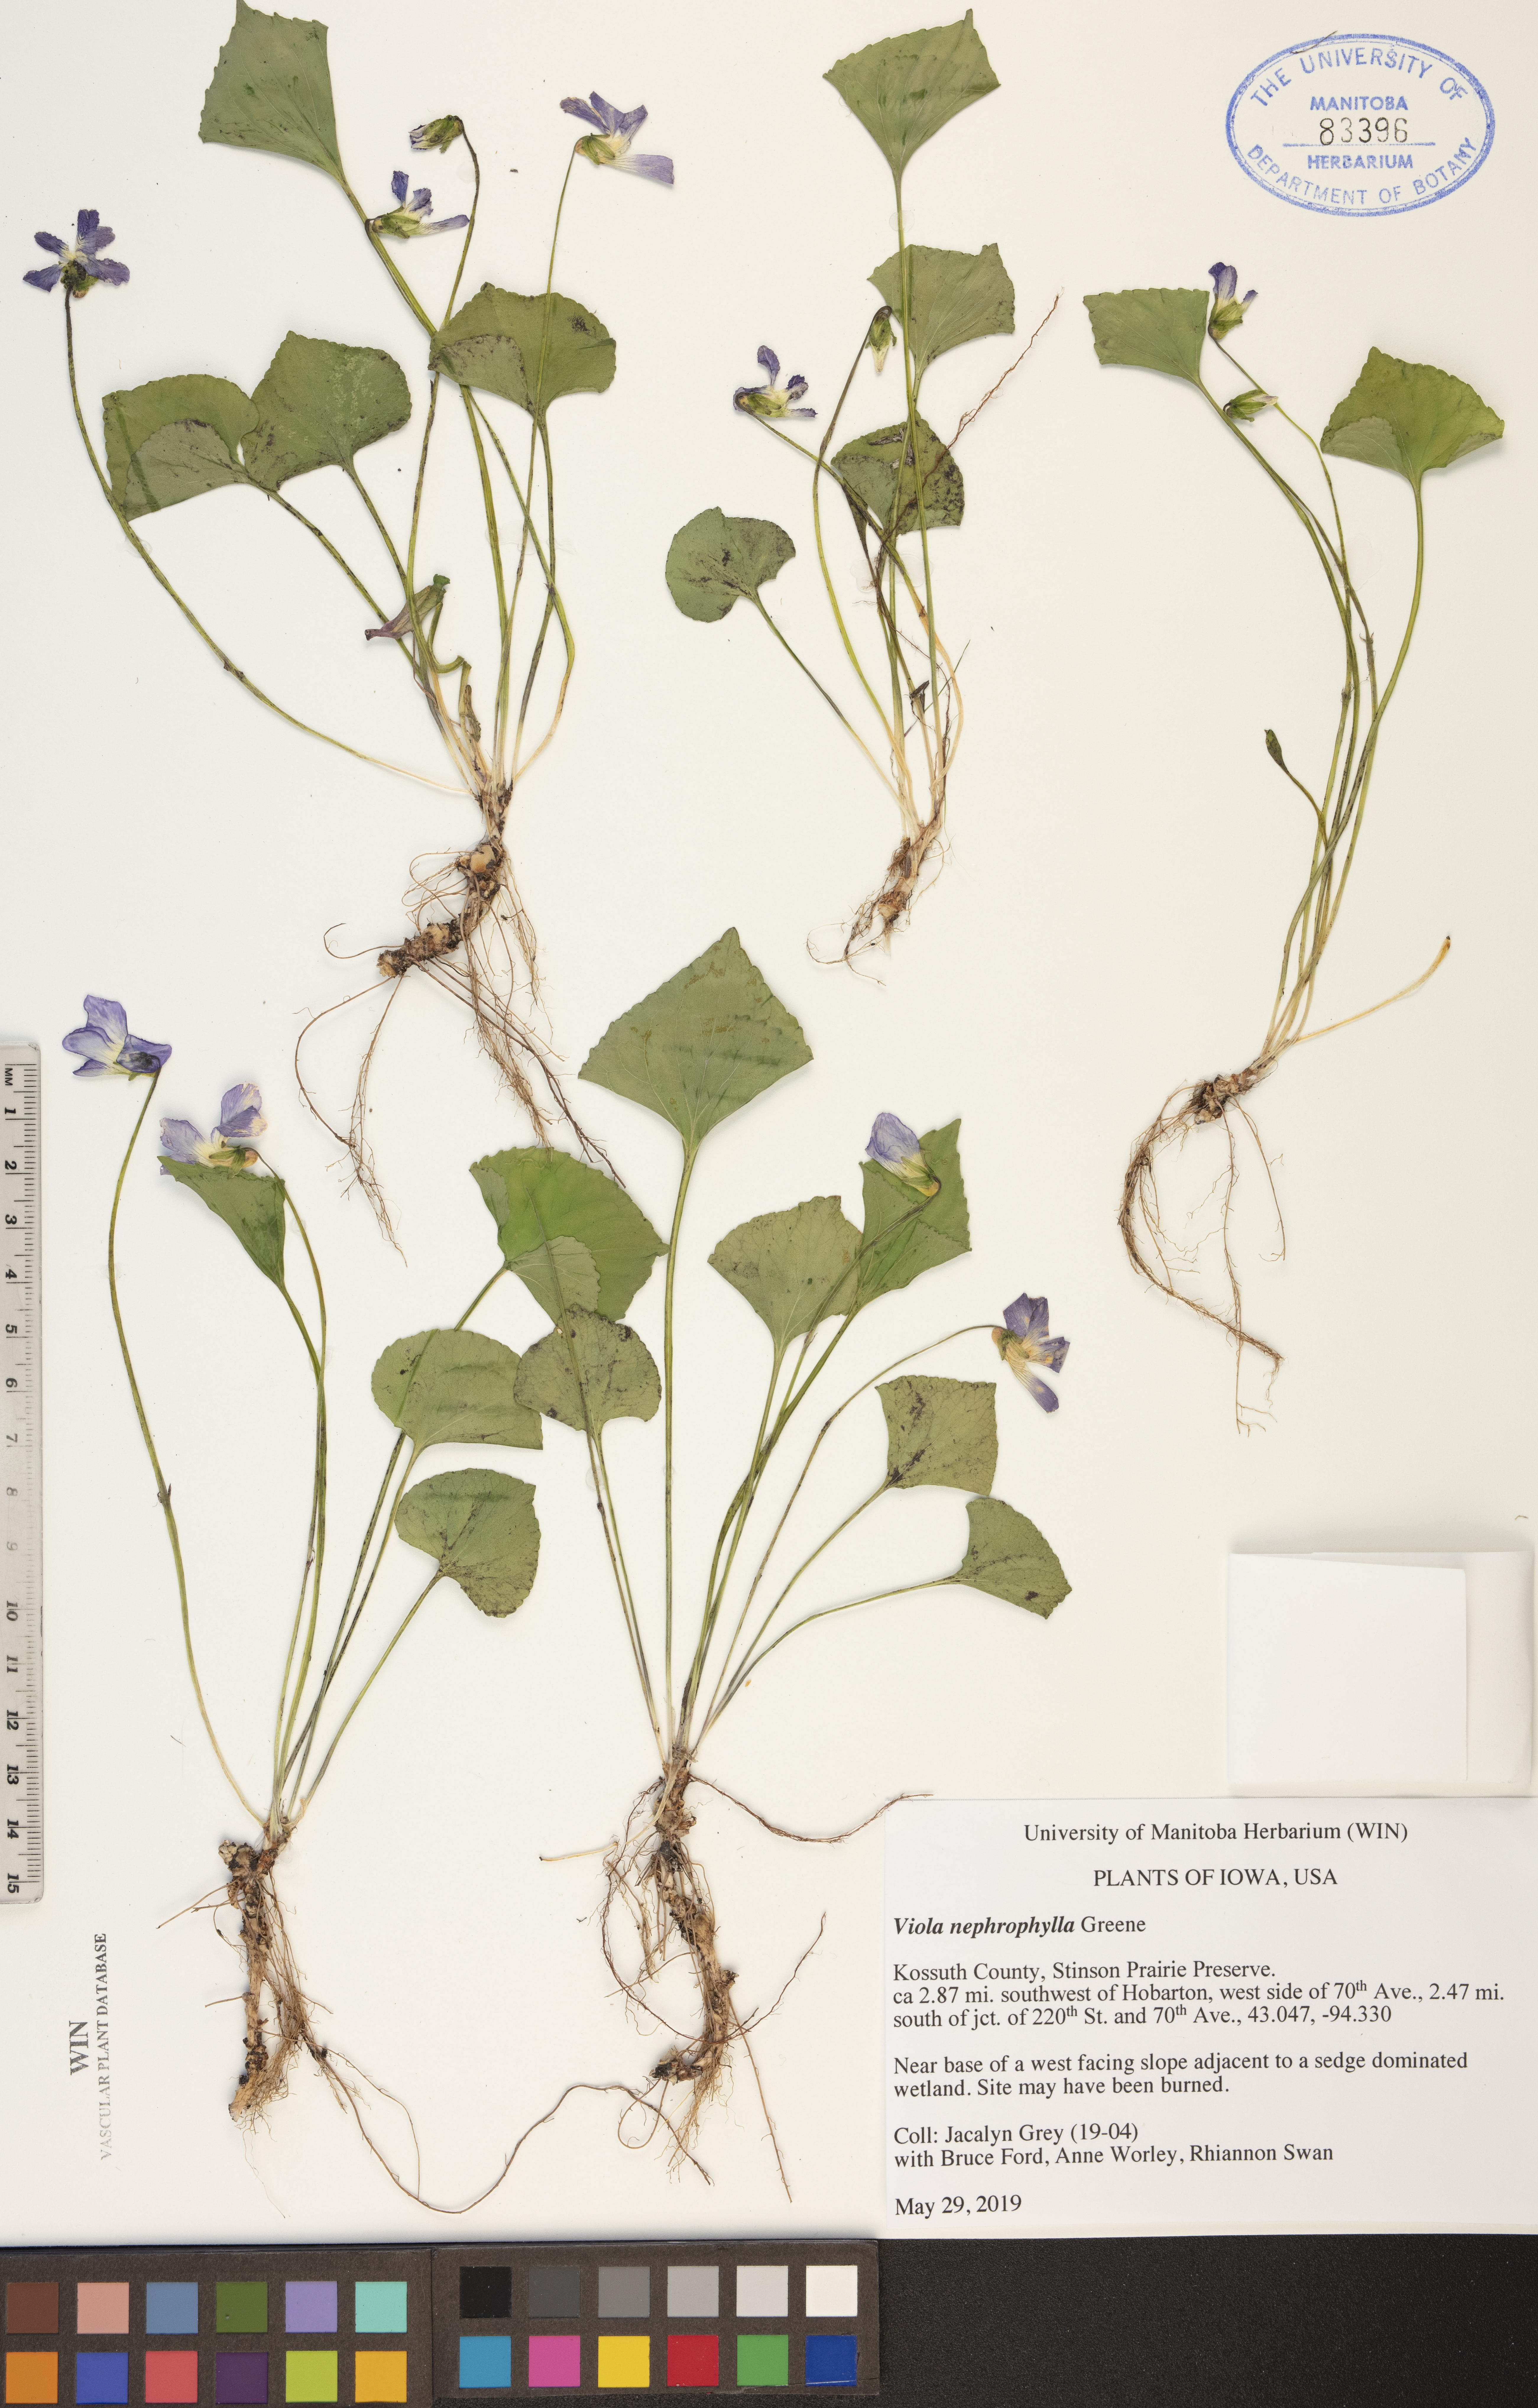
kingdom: Plantae
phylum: Tracheophyta
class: Magnoliopsida
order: Malpighiales
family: Violaceae
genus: Viola
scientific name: Viola nephrophylla
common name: Blue meadow violet
